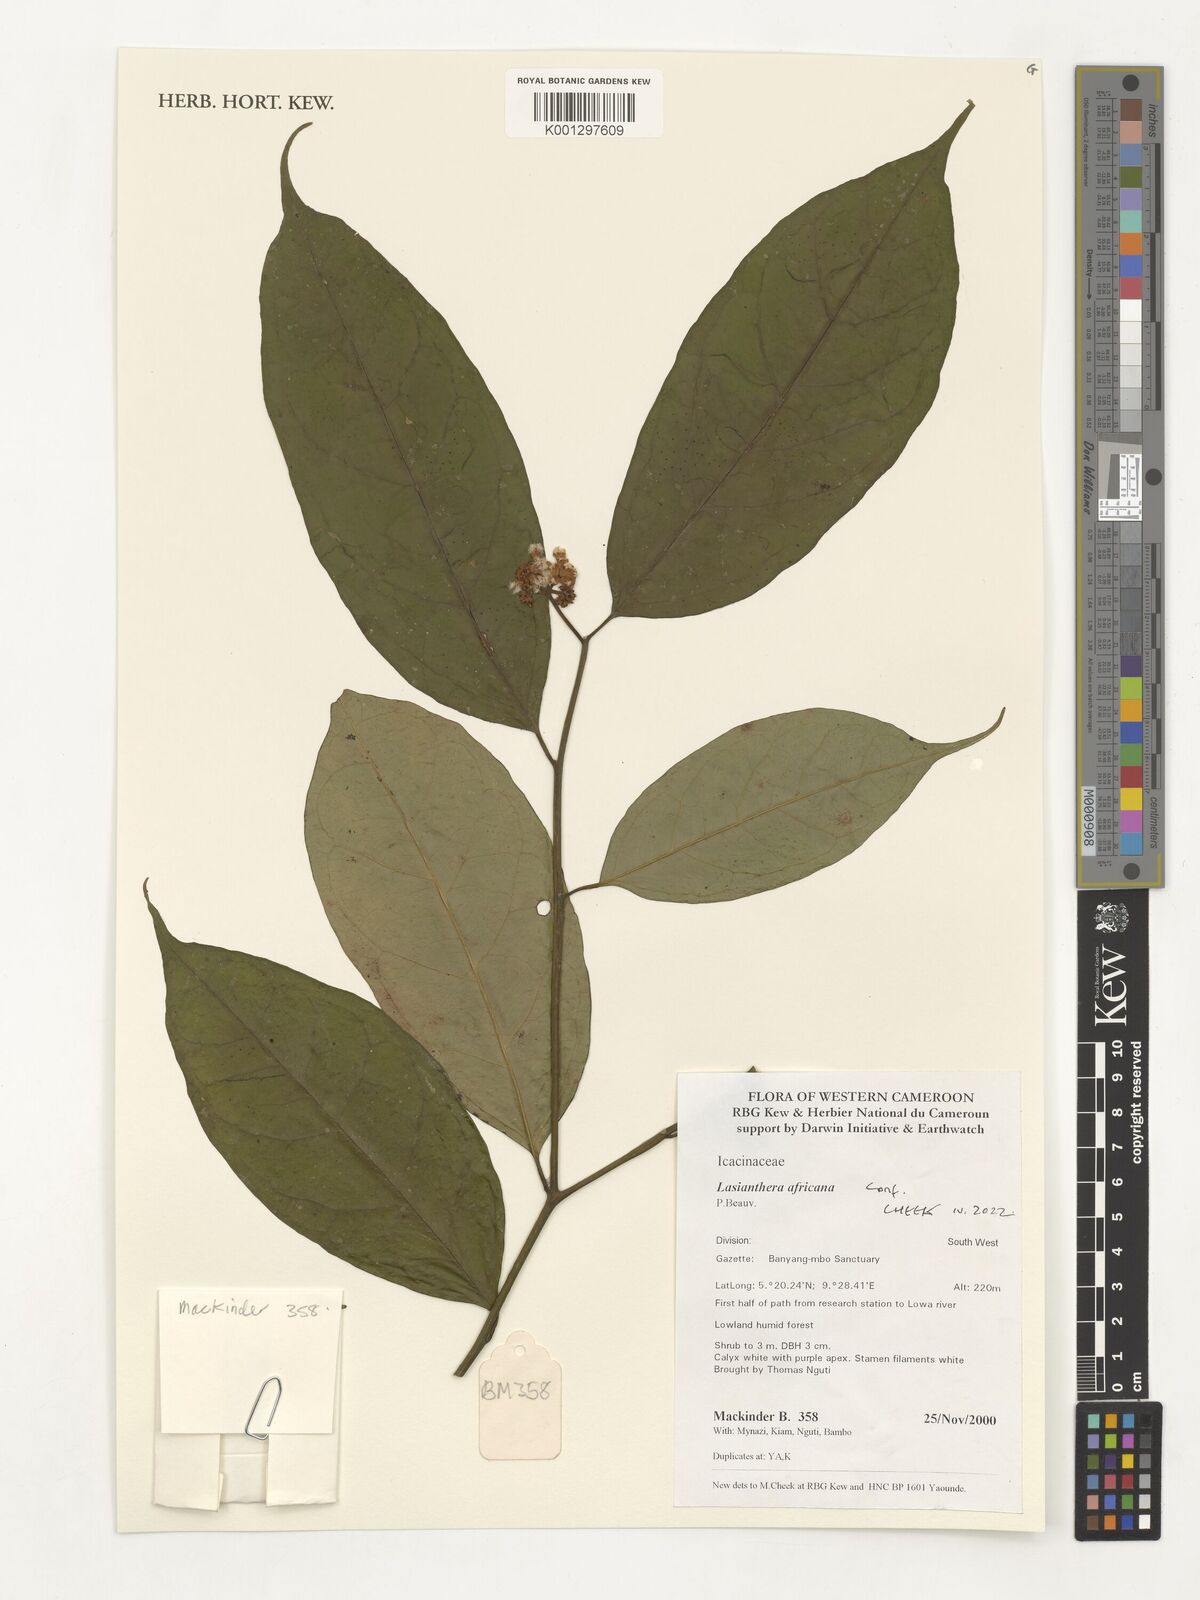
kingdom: Plantae
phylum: Tracheophyta
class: Magnoliopsida
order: Cardiopteridales
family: Stemonuraceae
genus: Lasianthera
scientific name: Lasianthera africana
